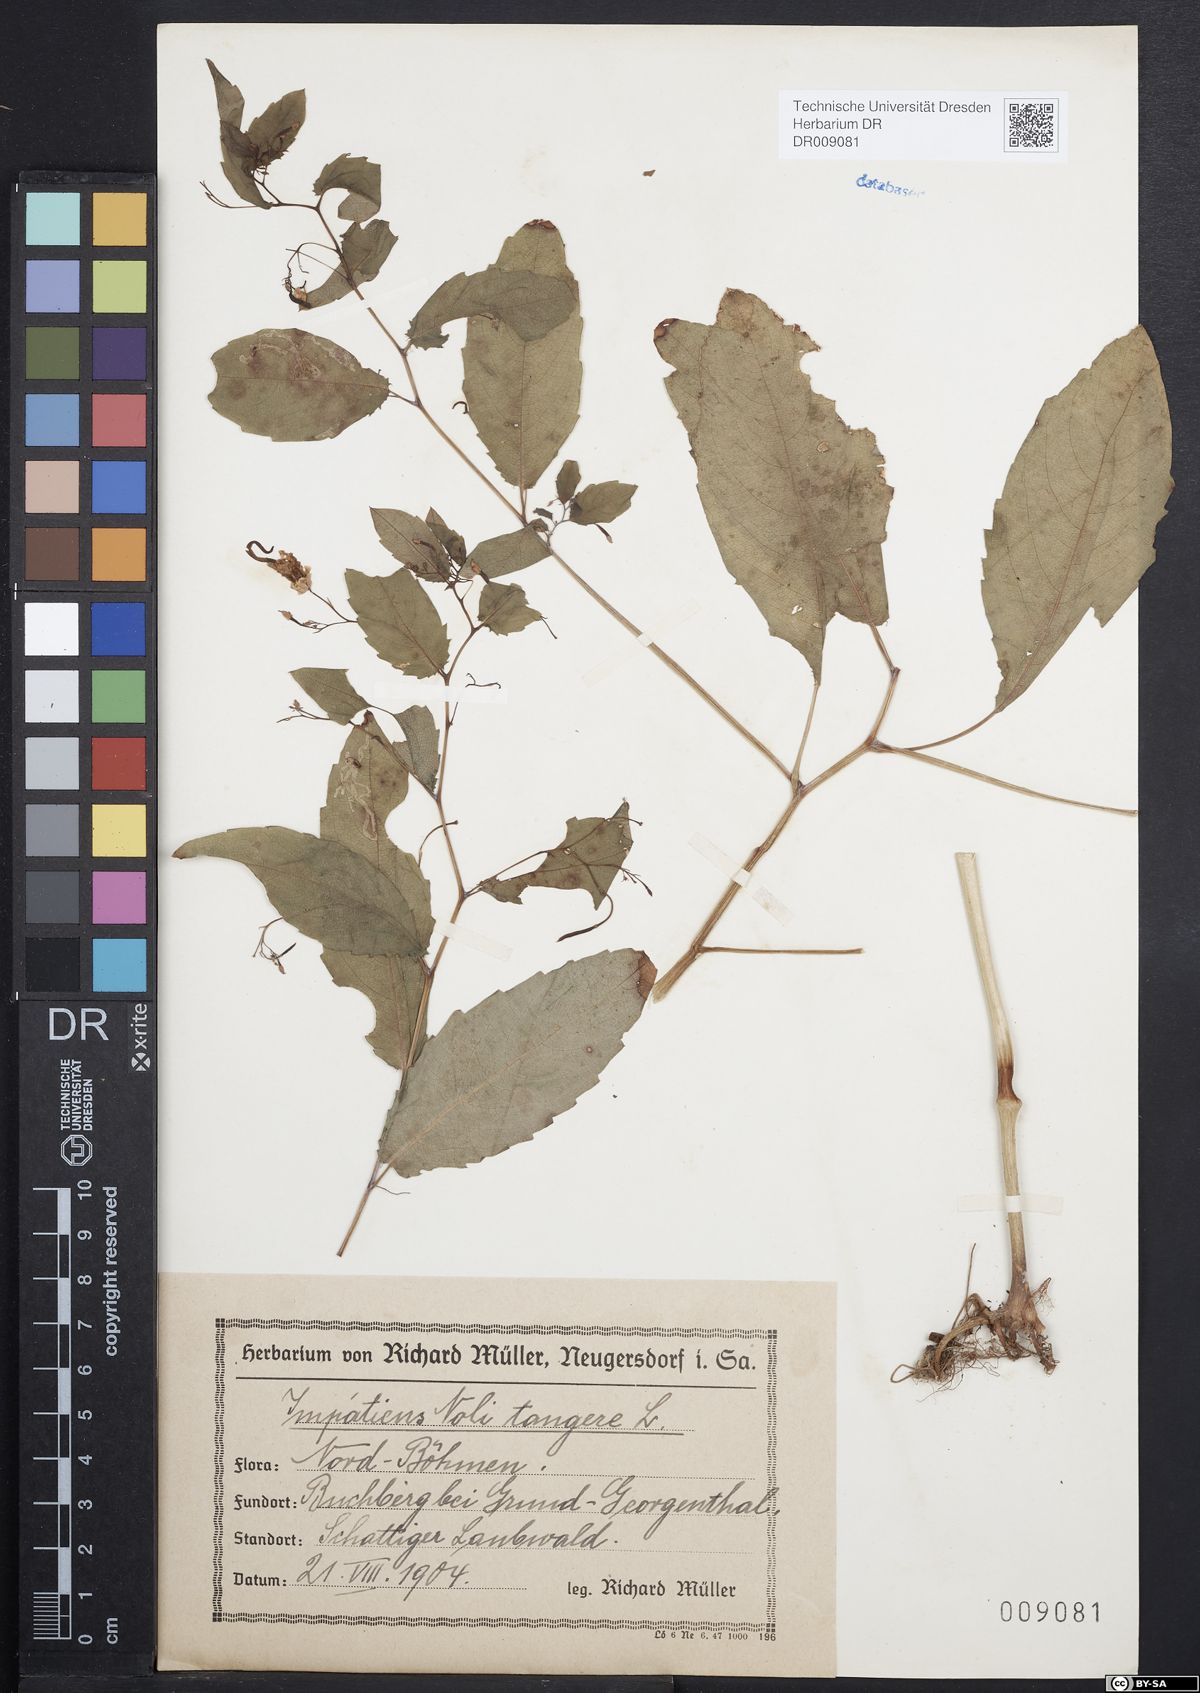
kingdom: Plantae
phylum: Tracheophyta
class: Magnoliopsida
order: Ericales
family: Balsaminaceae
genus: Impatiens
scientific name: Impatiens noli-tangere
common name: Touch-me-not balsam
